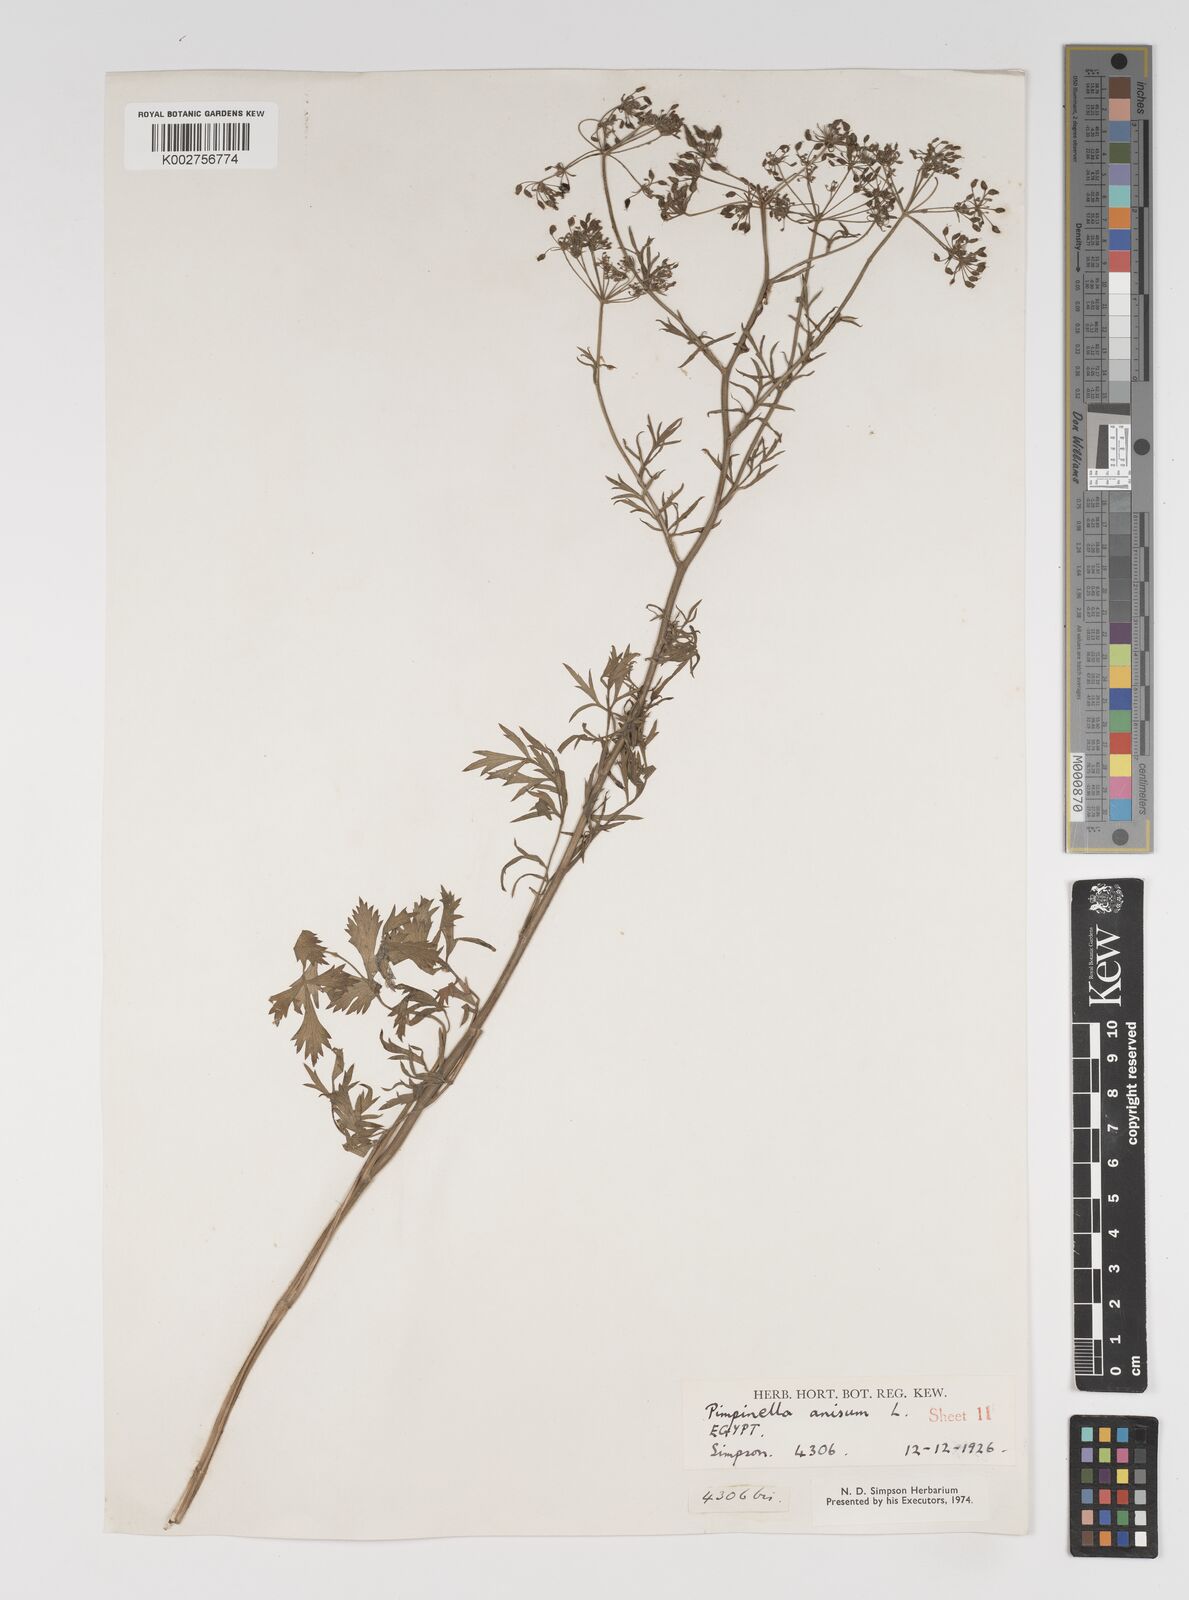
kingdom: Plantae
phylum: Tracheophyta
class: Magnoliopsida
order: Apiales
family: Apiaceae
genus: Pimpinella
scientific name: Pimpinella anisum
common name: Anise burnet saxifrage
